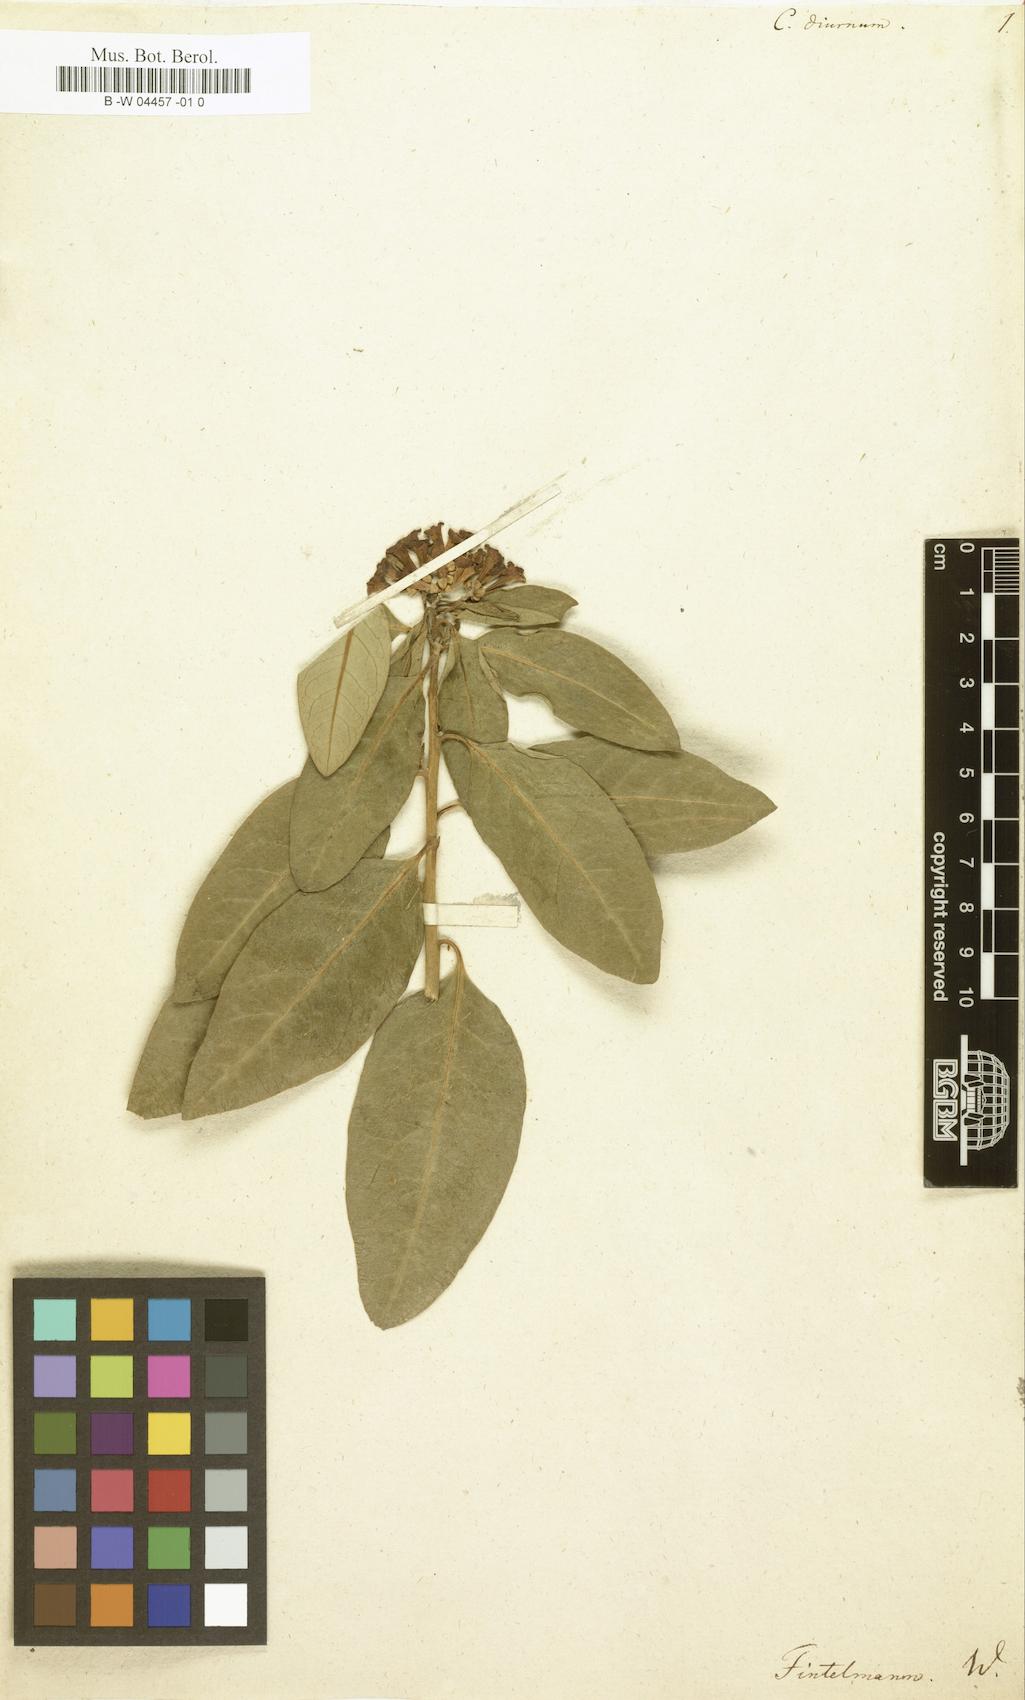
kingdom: Plantae
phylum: Tracheophyta
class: Magnoliopsida
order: Solanales
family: Solanaceae
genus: Cestrum
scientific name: Cestrum diurnum
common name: Day jessamine
